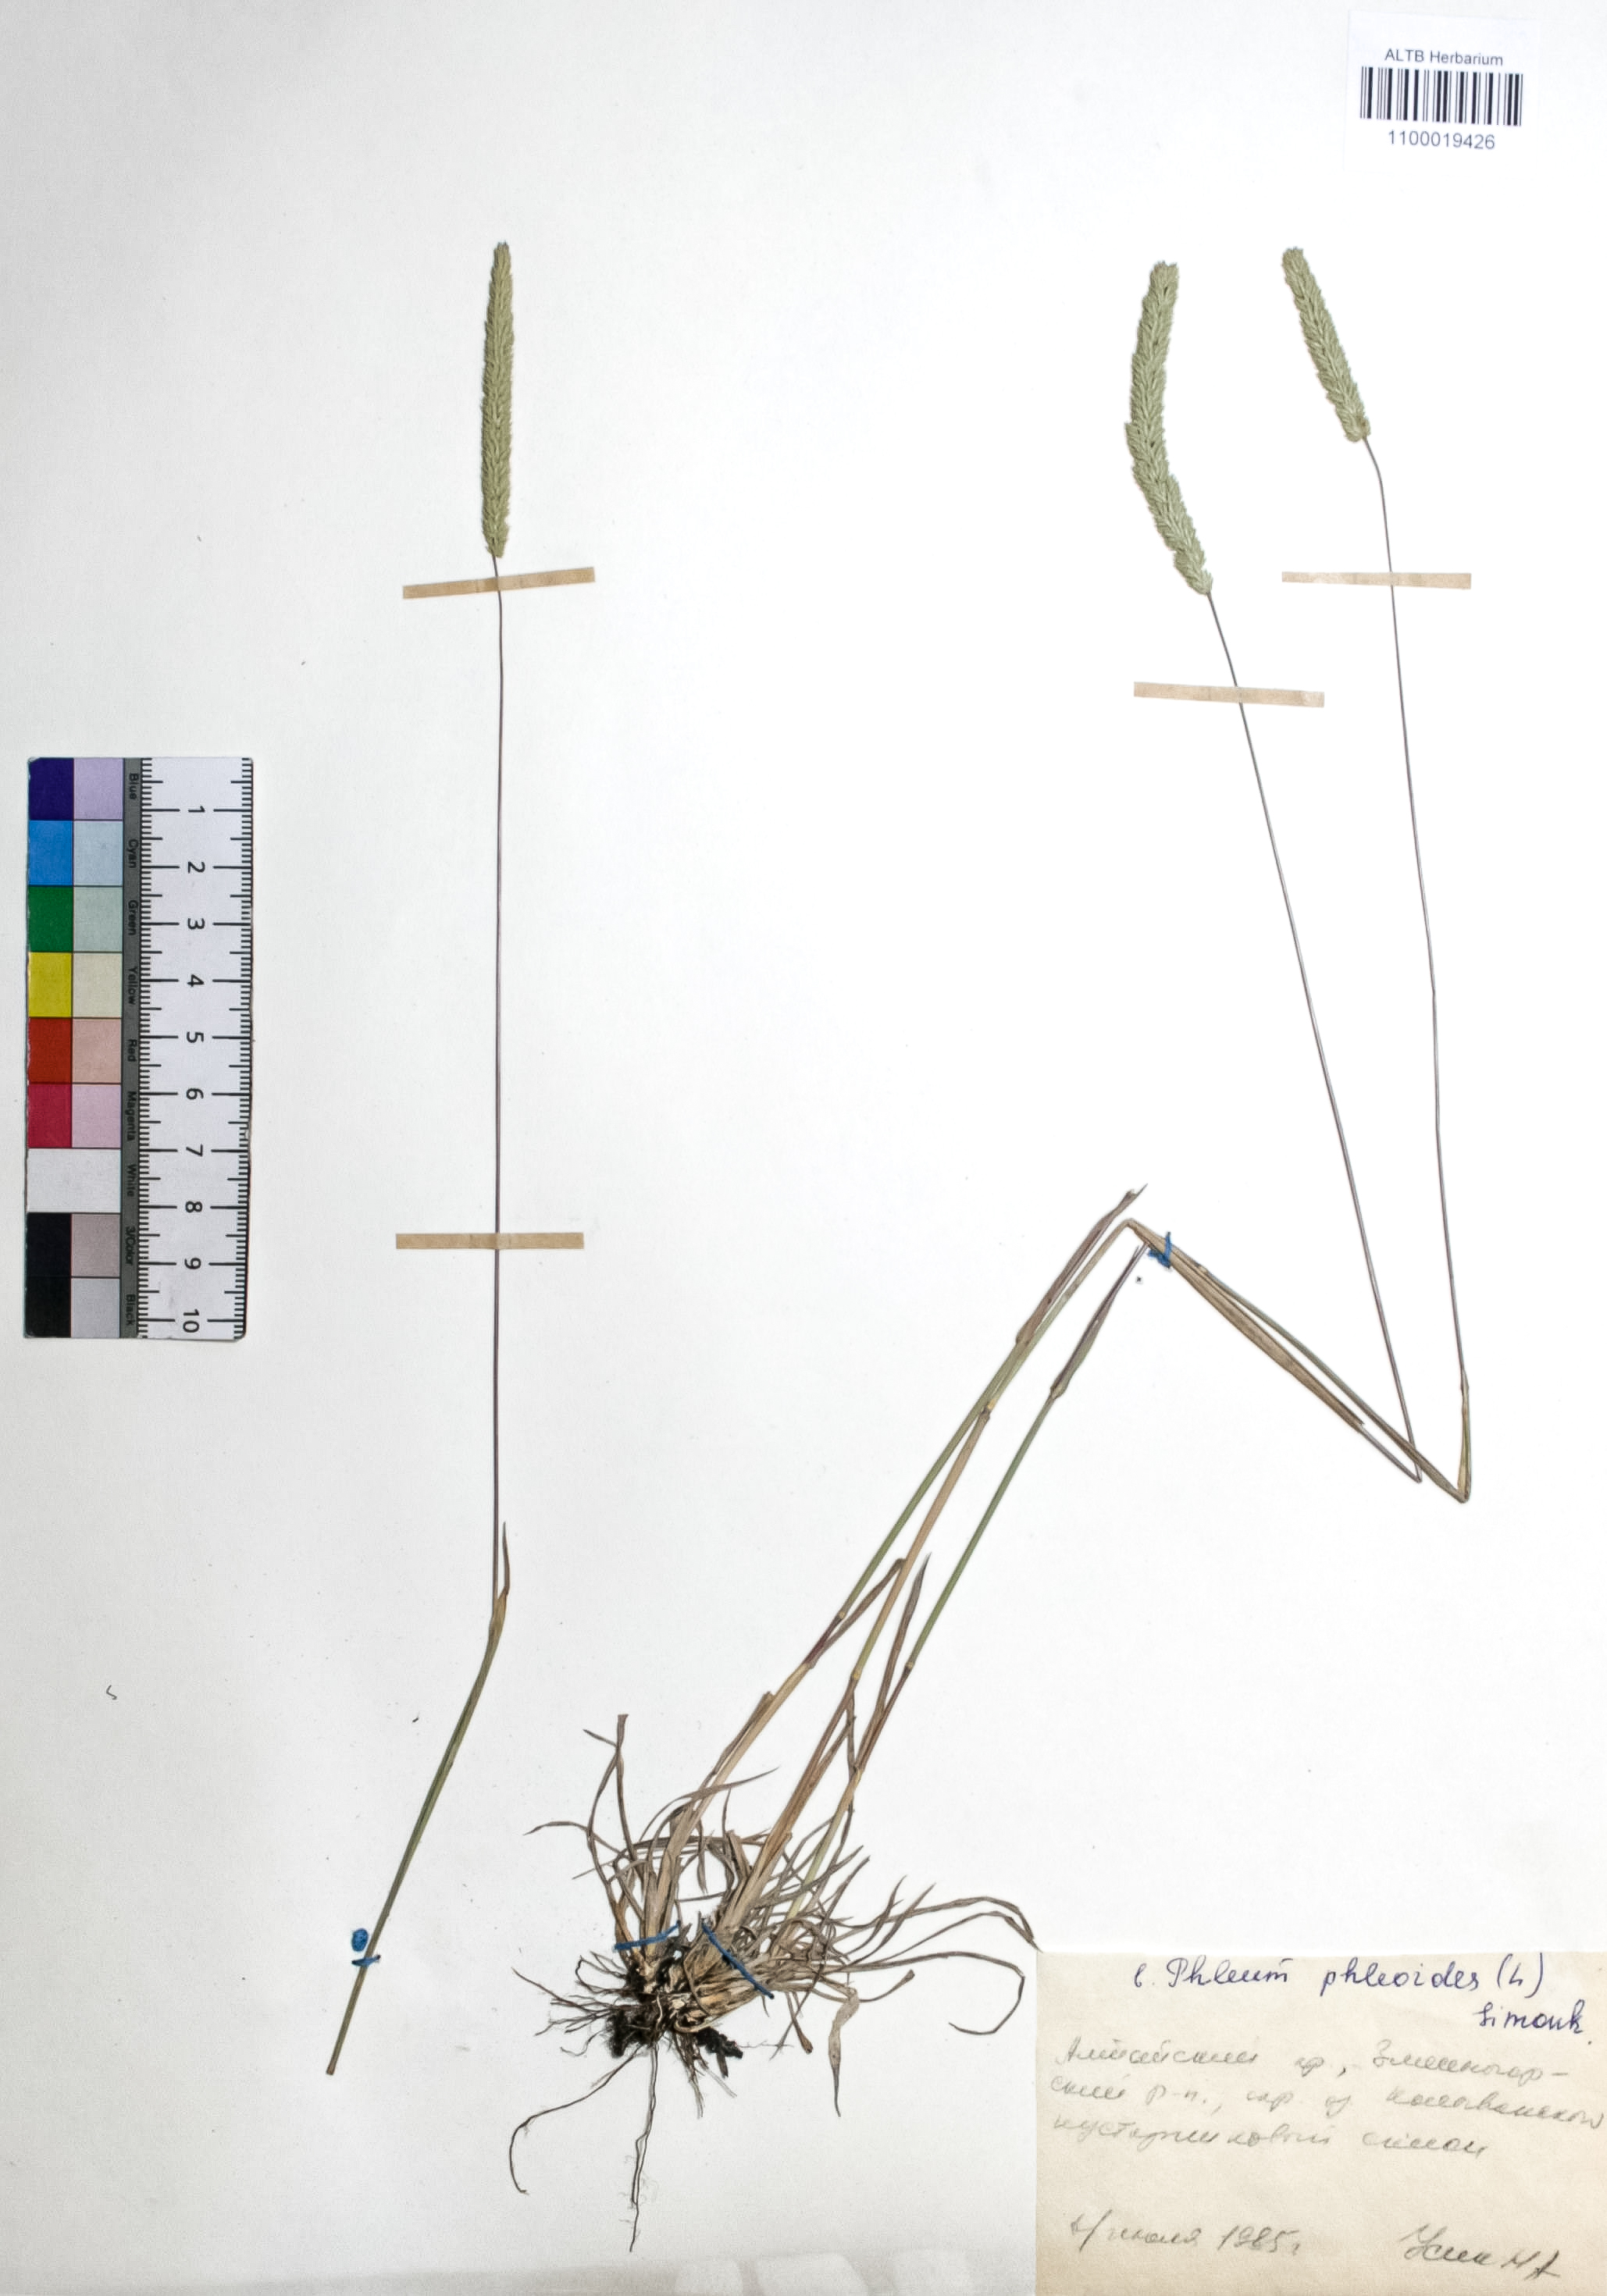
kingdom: Plantae
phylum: Tracheophyta
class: Liliopsida
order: Poales
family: Poaceae
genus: Phleum
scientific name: Phleum phleoides
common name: Purple-stem cat's-tail
